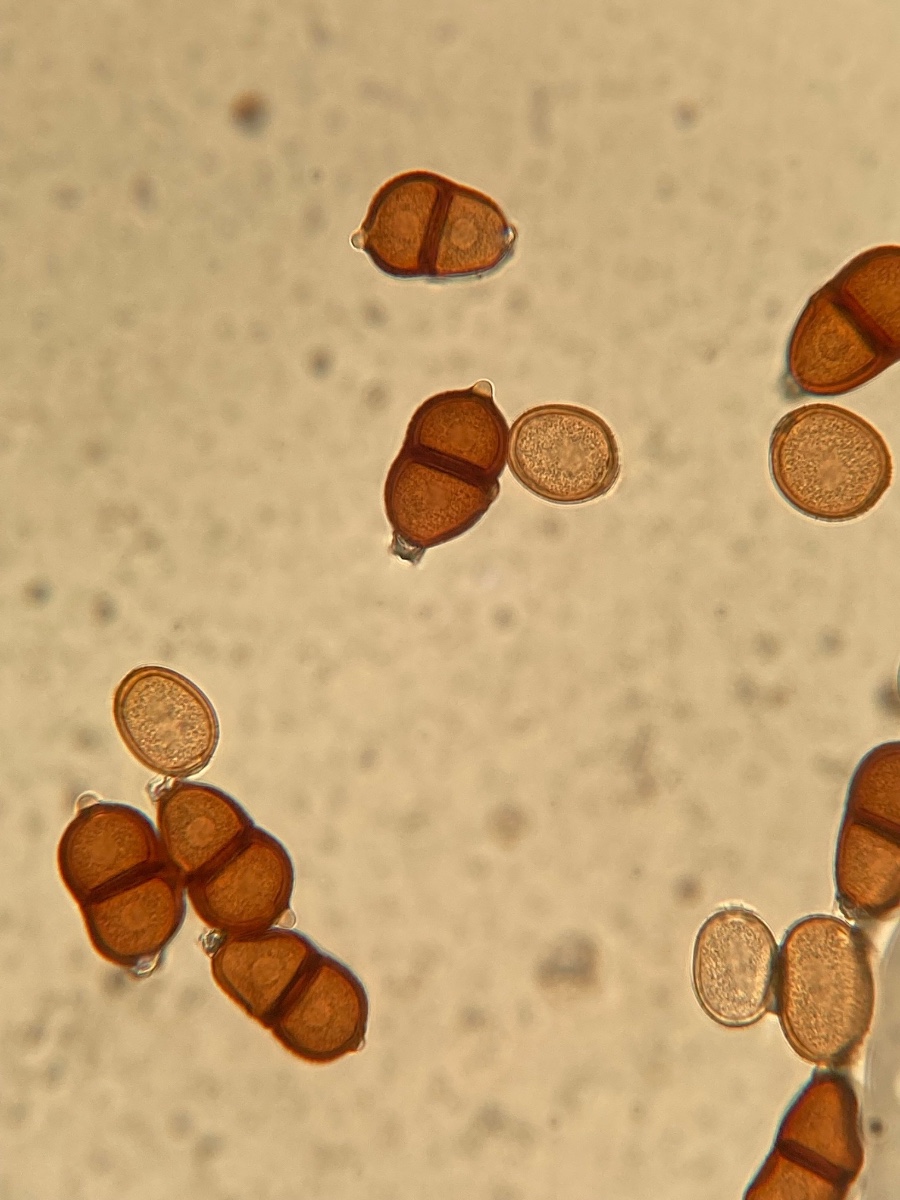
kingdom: Fungi
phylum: Basidiomycota
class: Pucciniomycetes
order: Pucciniales
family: Pucciniaceae
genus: Puccinia
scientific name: Puccinia komarovii
